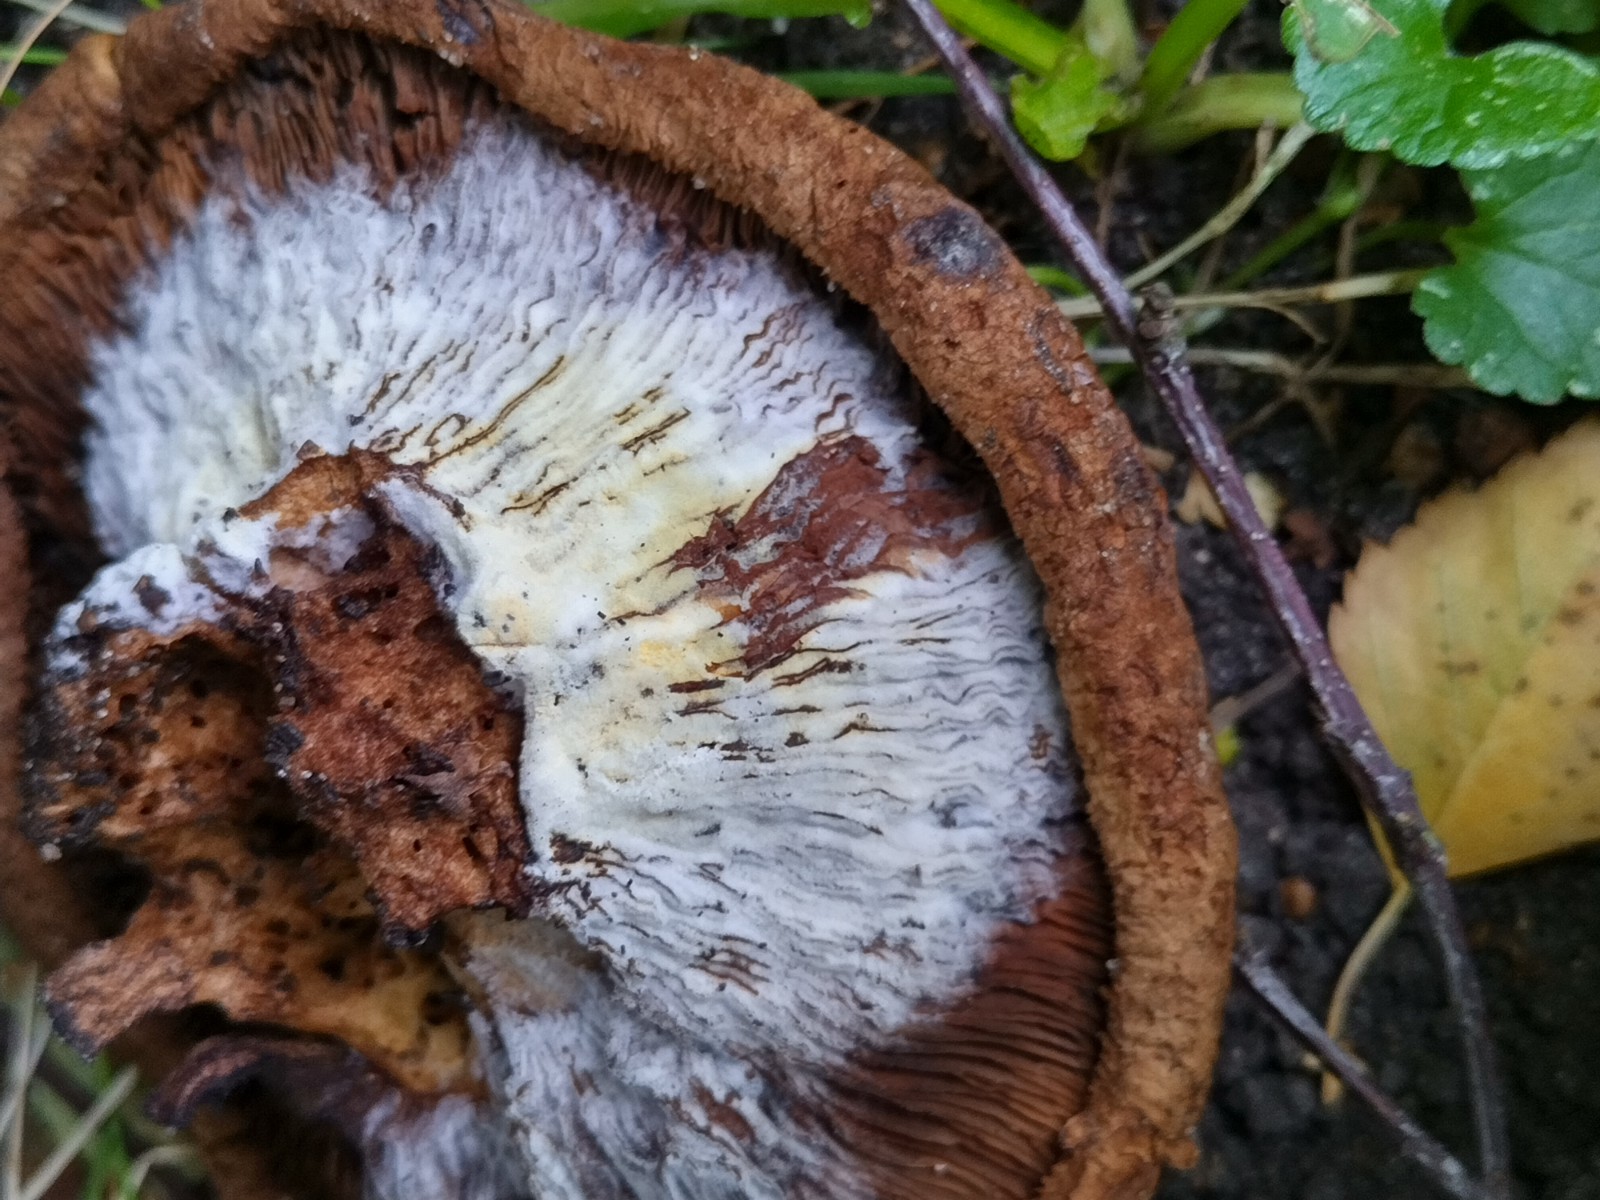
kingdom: Fungi
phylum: Ascomycota
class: Sordariomycetes
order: Hypocreales
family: Hypocreaceae
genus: Hypomyces
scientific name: Hypomyces
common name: snylteskorpe
